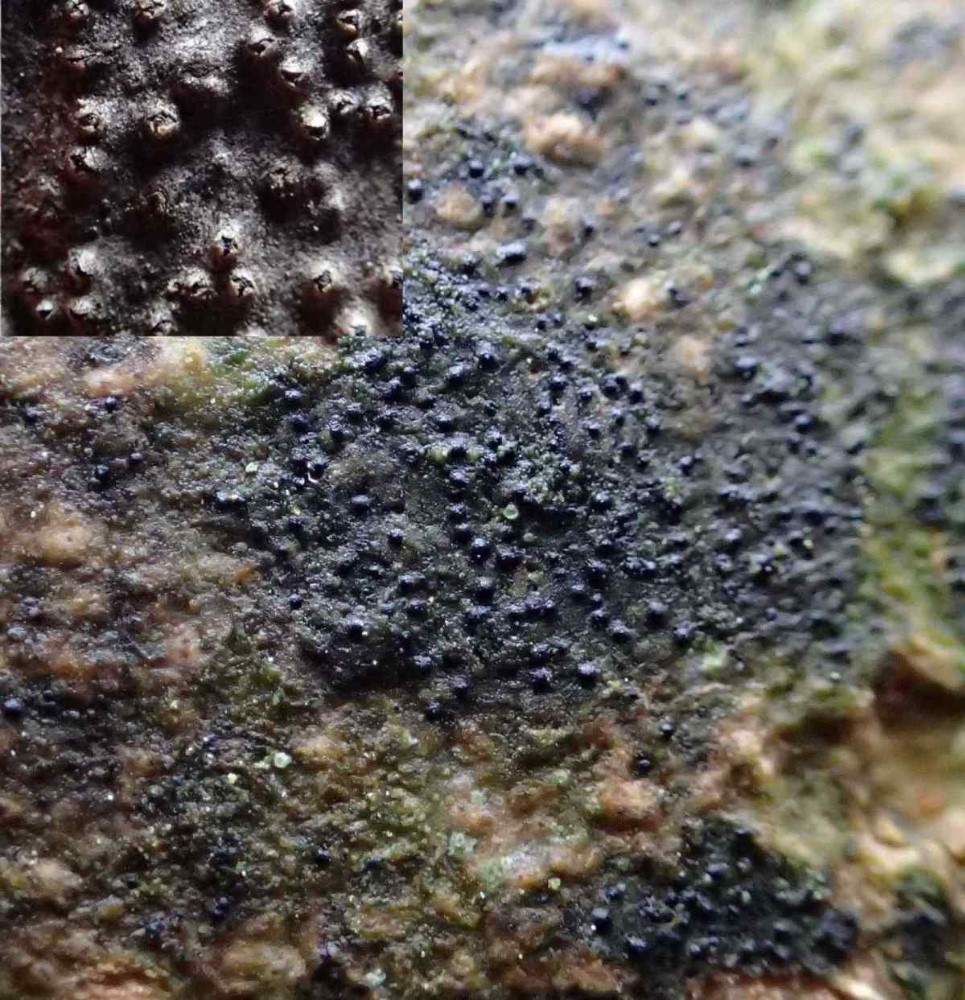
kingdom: Fungi
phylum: Ascomycota
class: Lecanoromycetes
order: Ostropales
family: Porinaceae
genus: Pseudosagedia
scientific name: Pseudosagedia aenea
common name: grønlig porina
